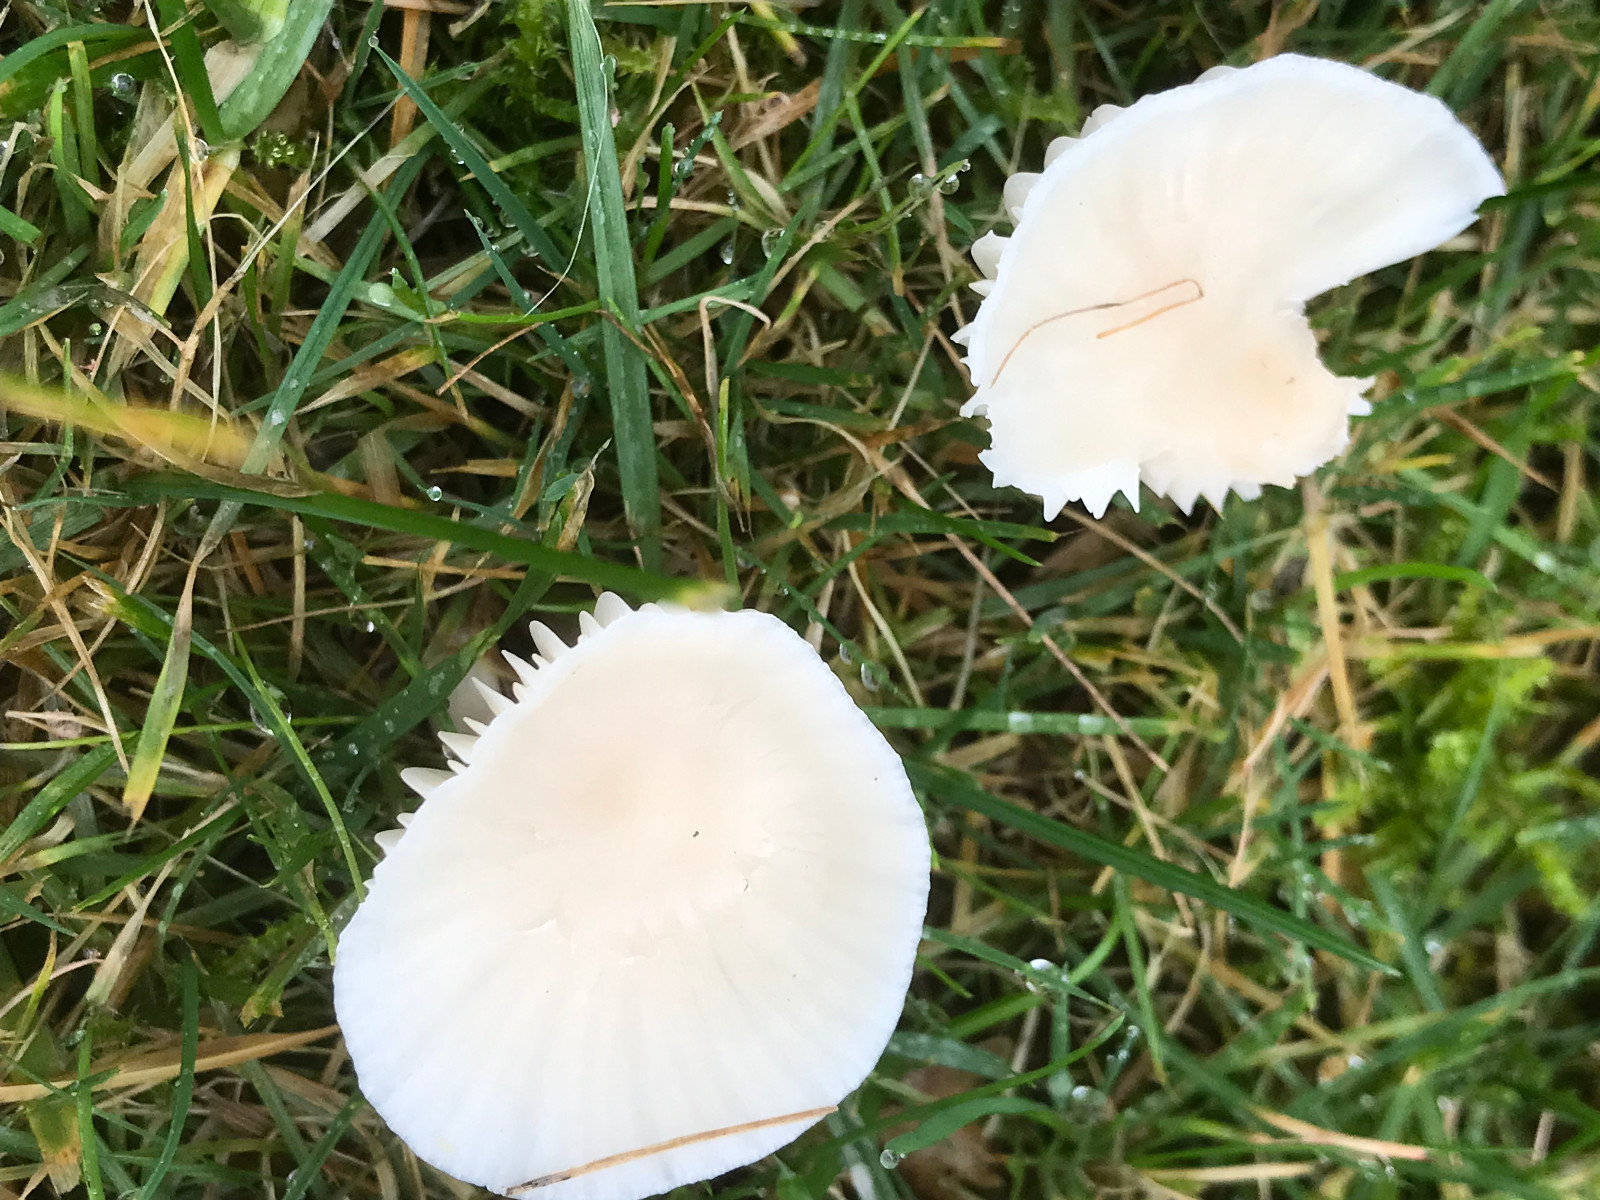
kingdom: Fungi
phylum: Basidiomycota
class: Agaricomycetes
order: Agaricales
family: Hygrophoraceae
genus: Cuphophyllus
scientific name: Cuphophyllus
